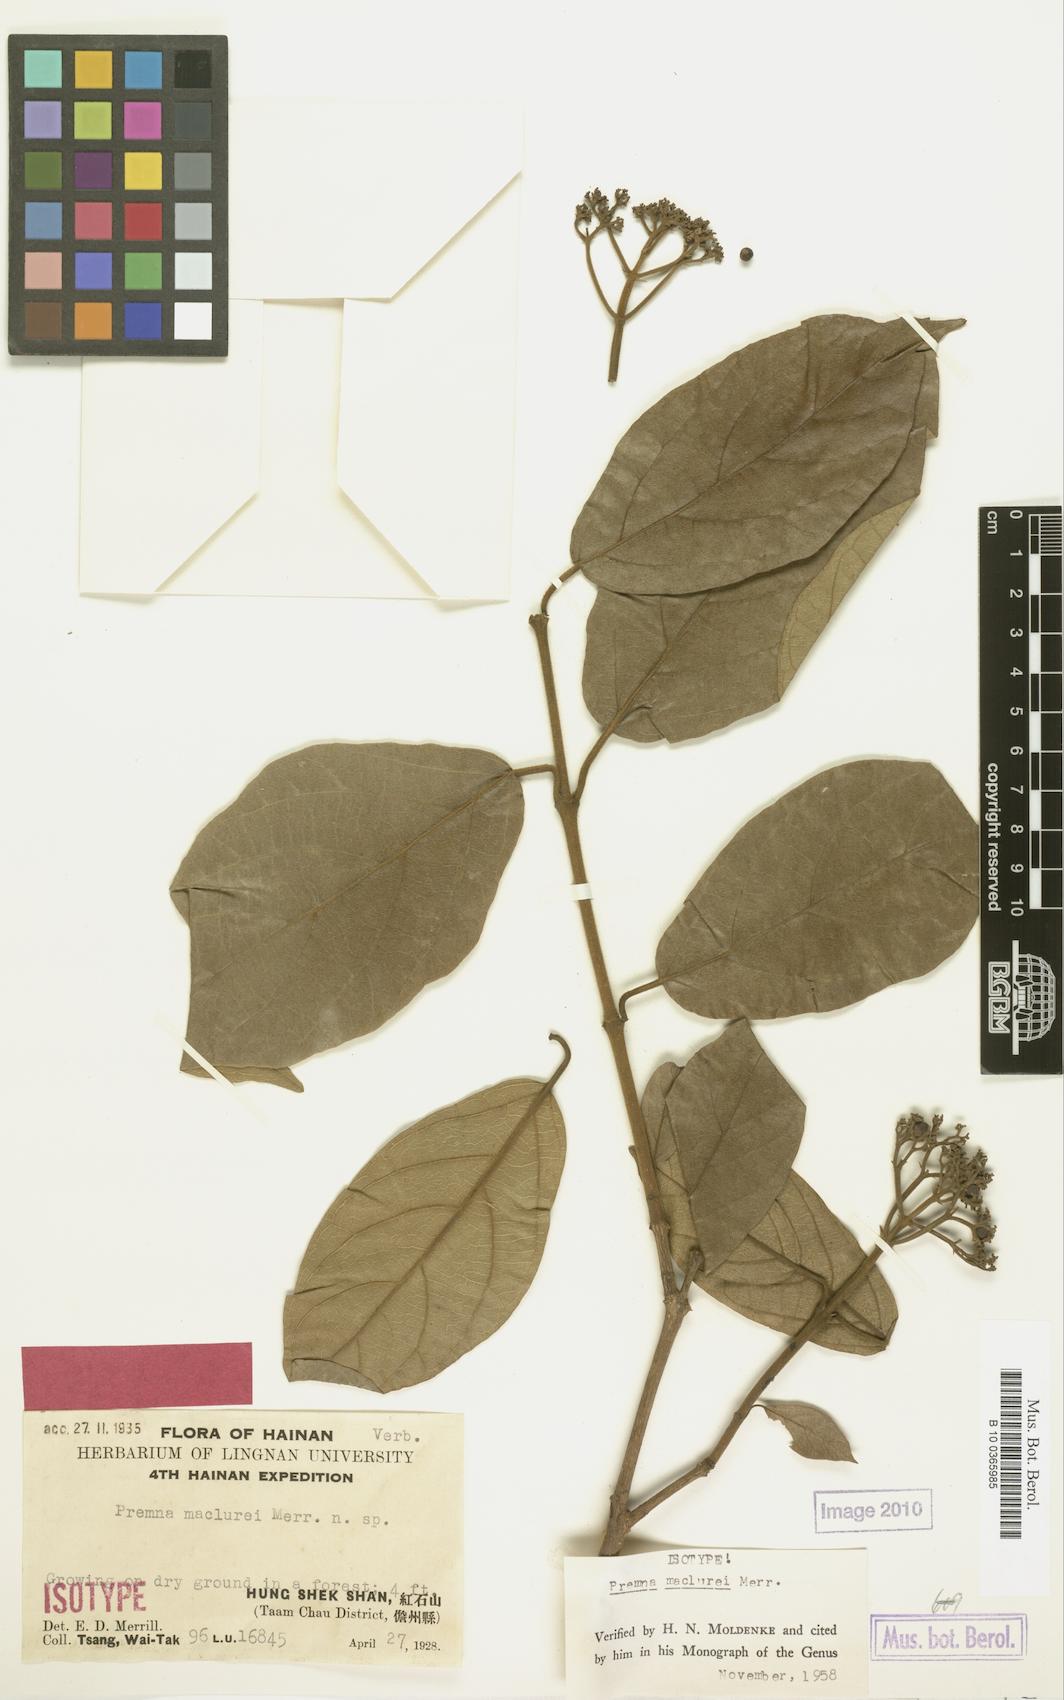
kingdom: Plantae
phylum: Tracheophyta
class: Magnoliopsida
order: Lamiales
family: Lamiaceae
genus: Premna
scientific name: Premna odorata
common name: Fragrant premna
